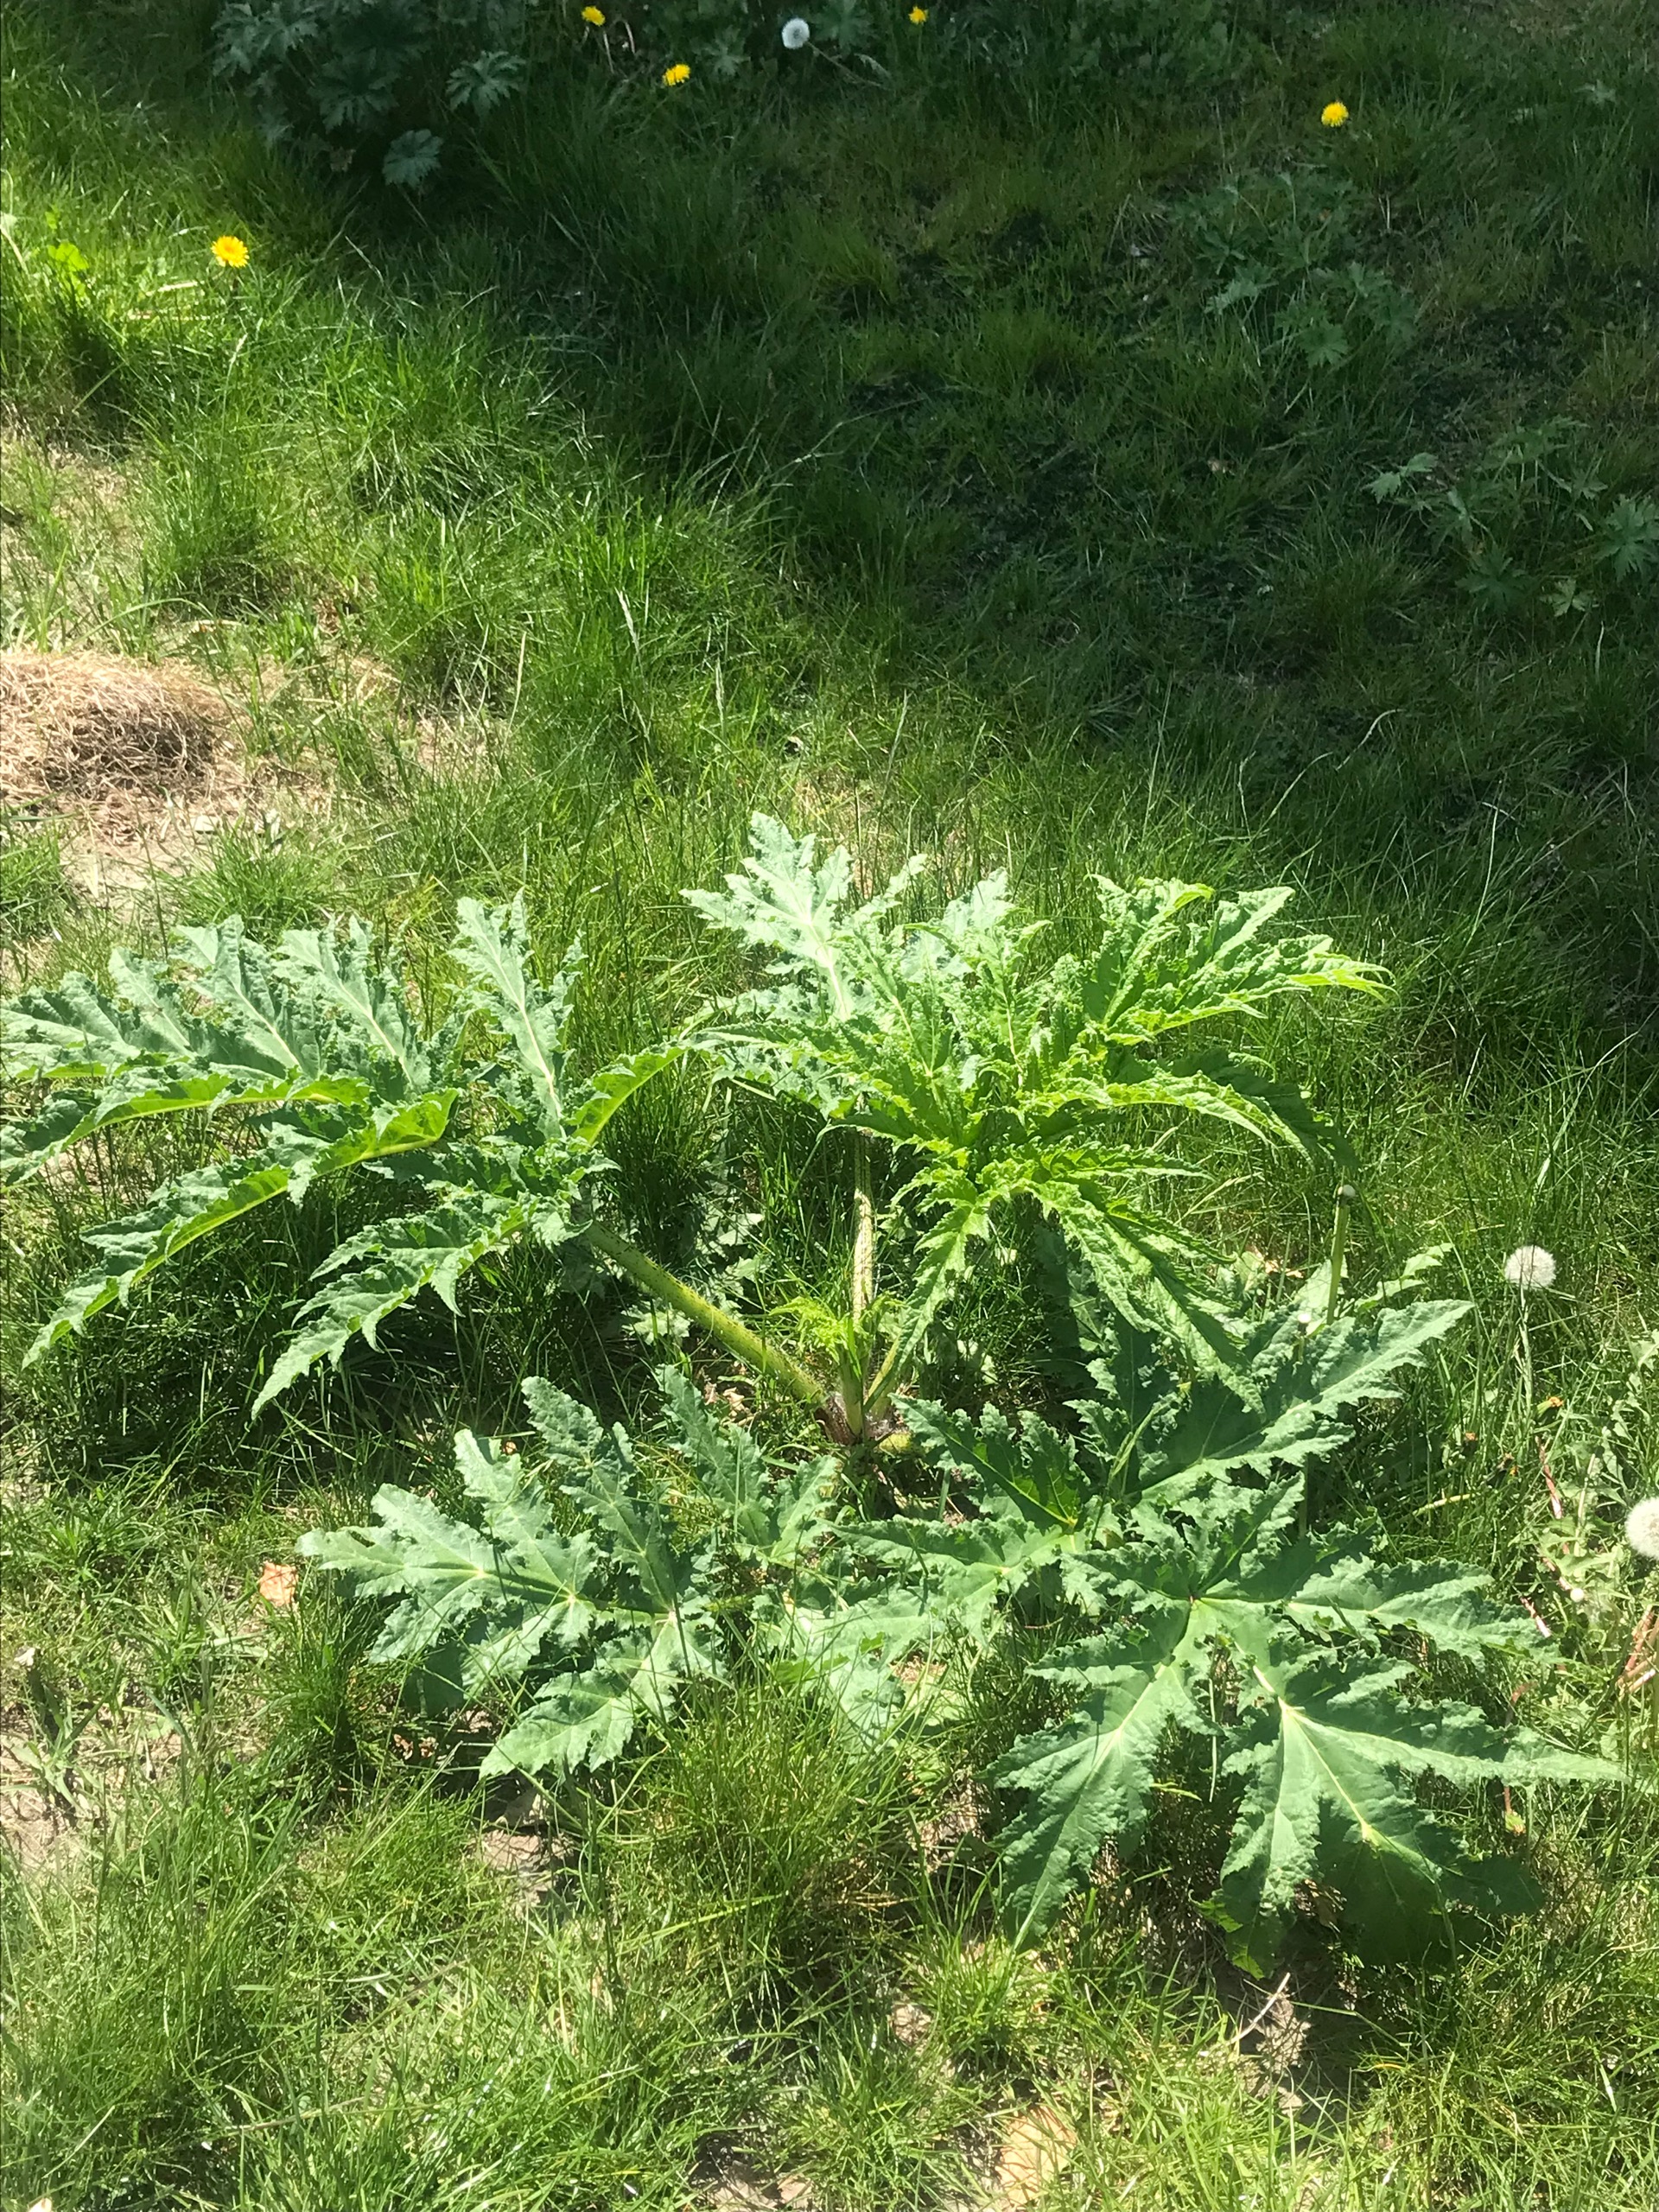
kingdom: Plantae
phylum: Tracheophyta
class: Magnoliopsida
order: Apiales
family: Apiaceae
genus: Heracleum
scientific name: Heracleum mantegazzianum
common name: Kæmpe-bjørneklo
